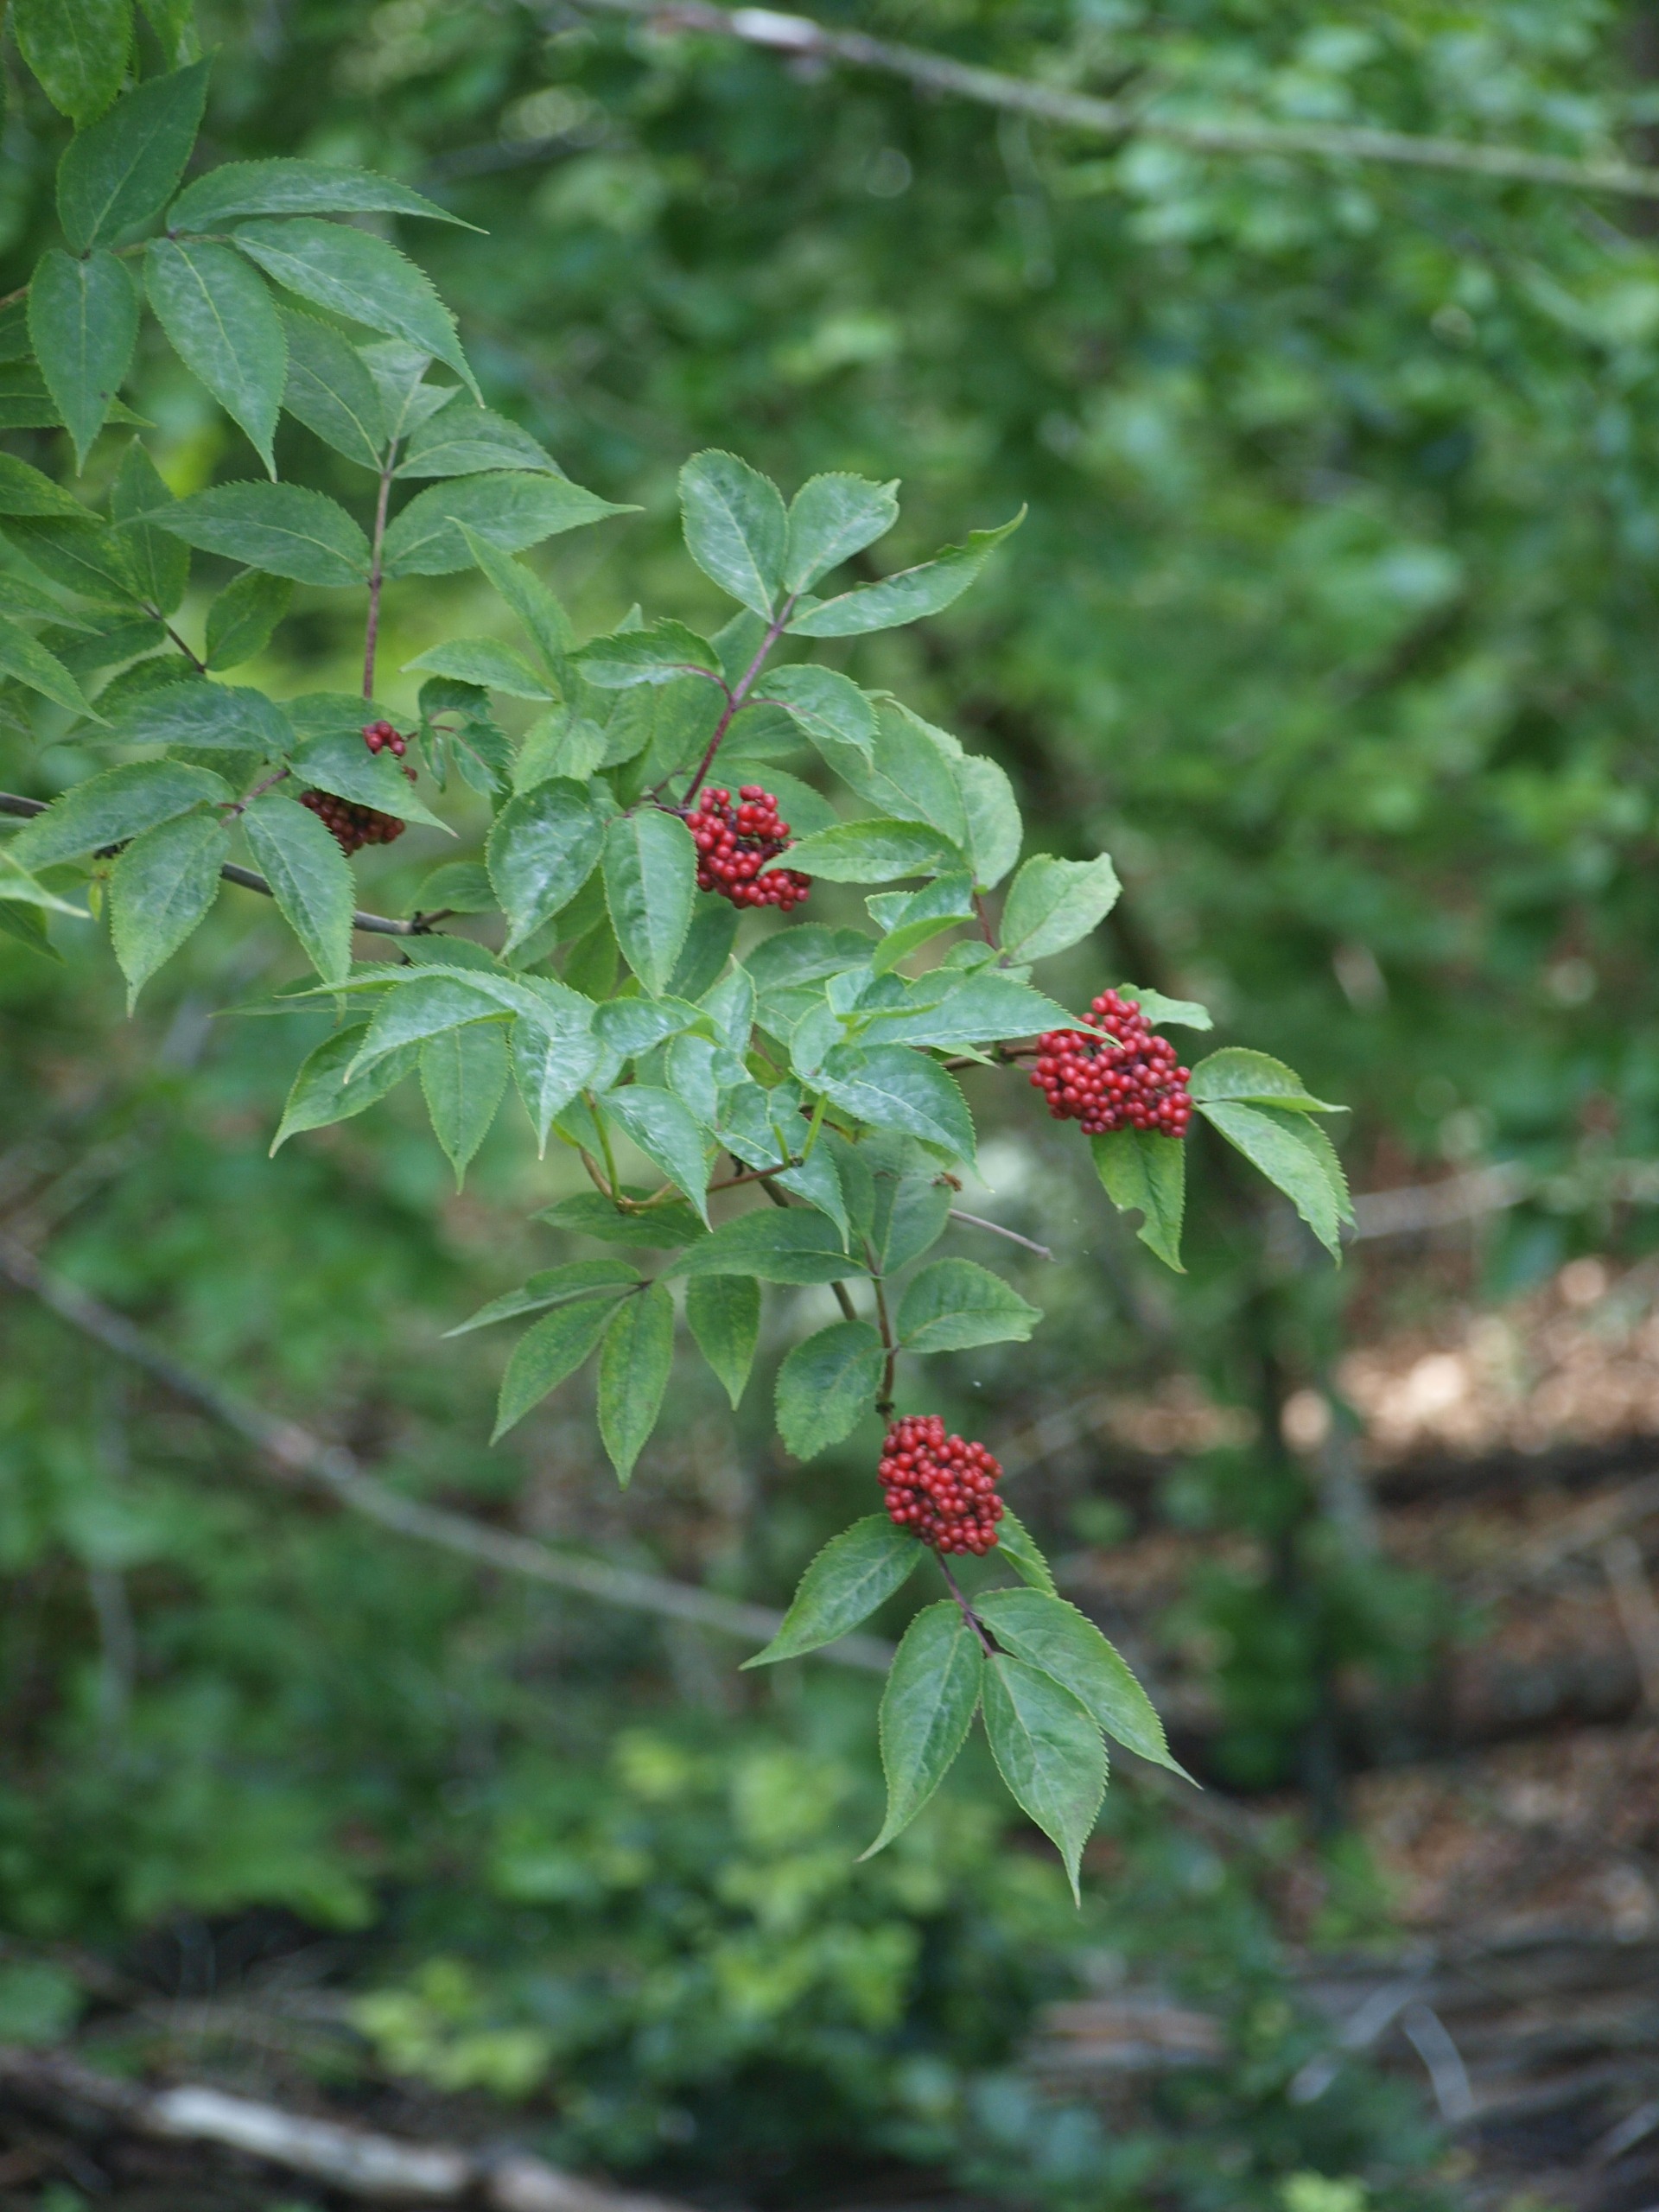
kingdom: Plantae
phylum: Tracheophyta
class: Magnoliopsida
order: Dipsacales
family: Viburnaceae
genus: Sambucus
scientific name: Sambucus racemosa
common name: Drue-hyld
